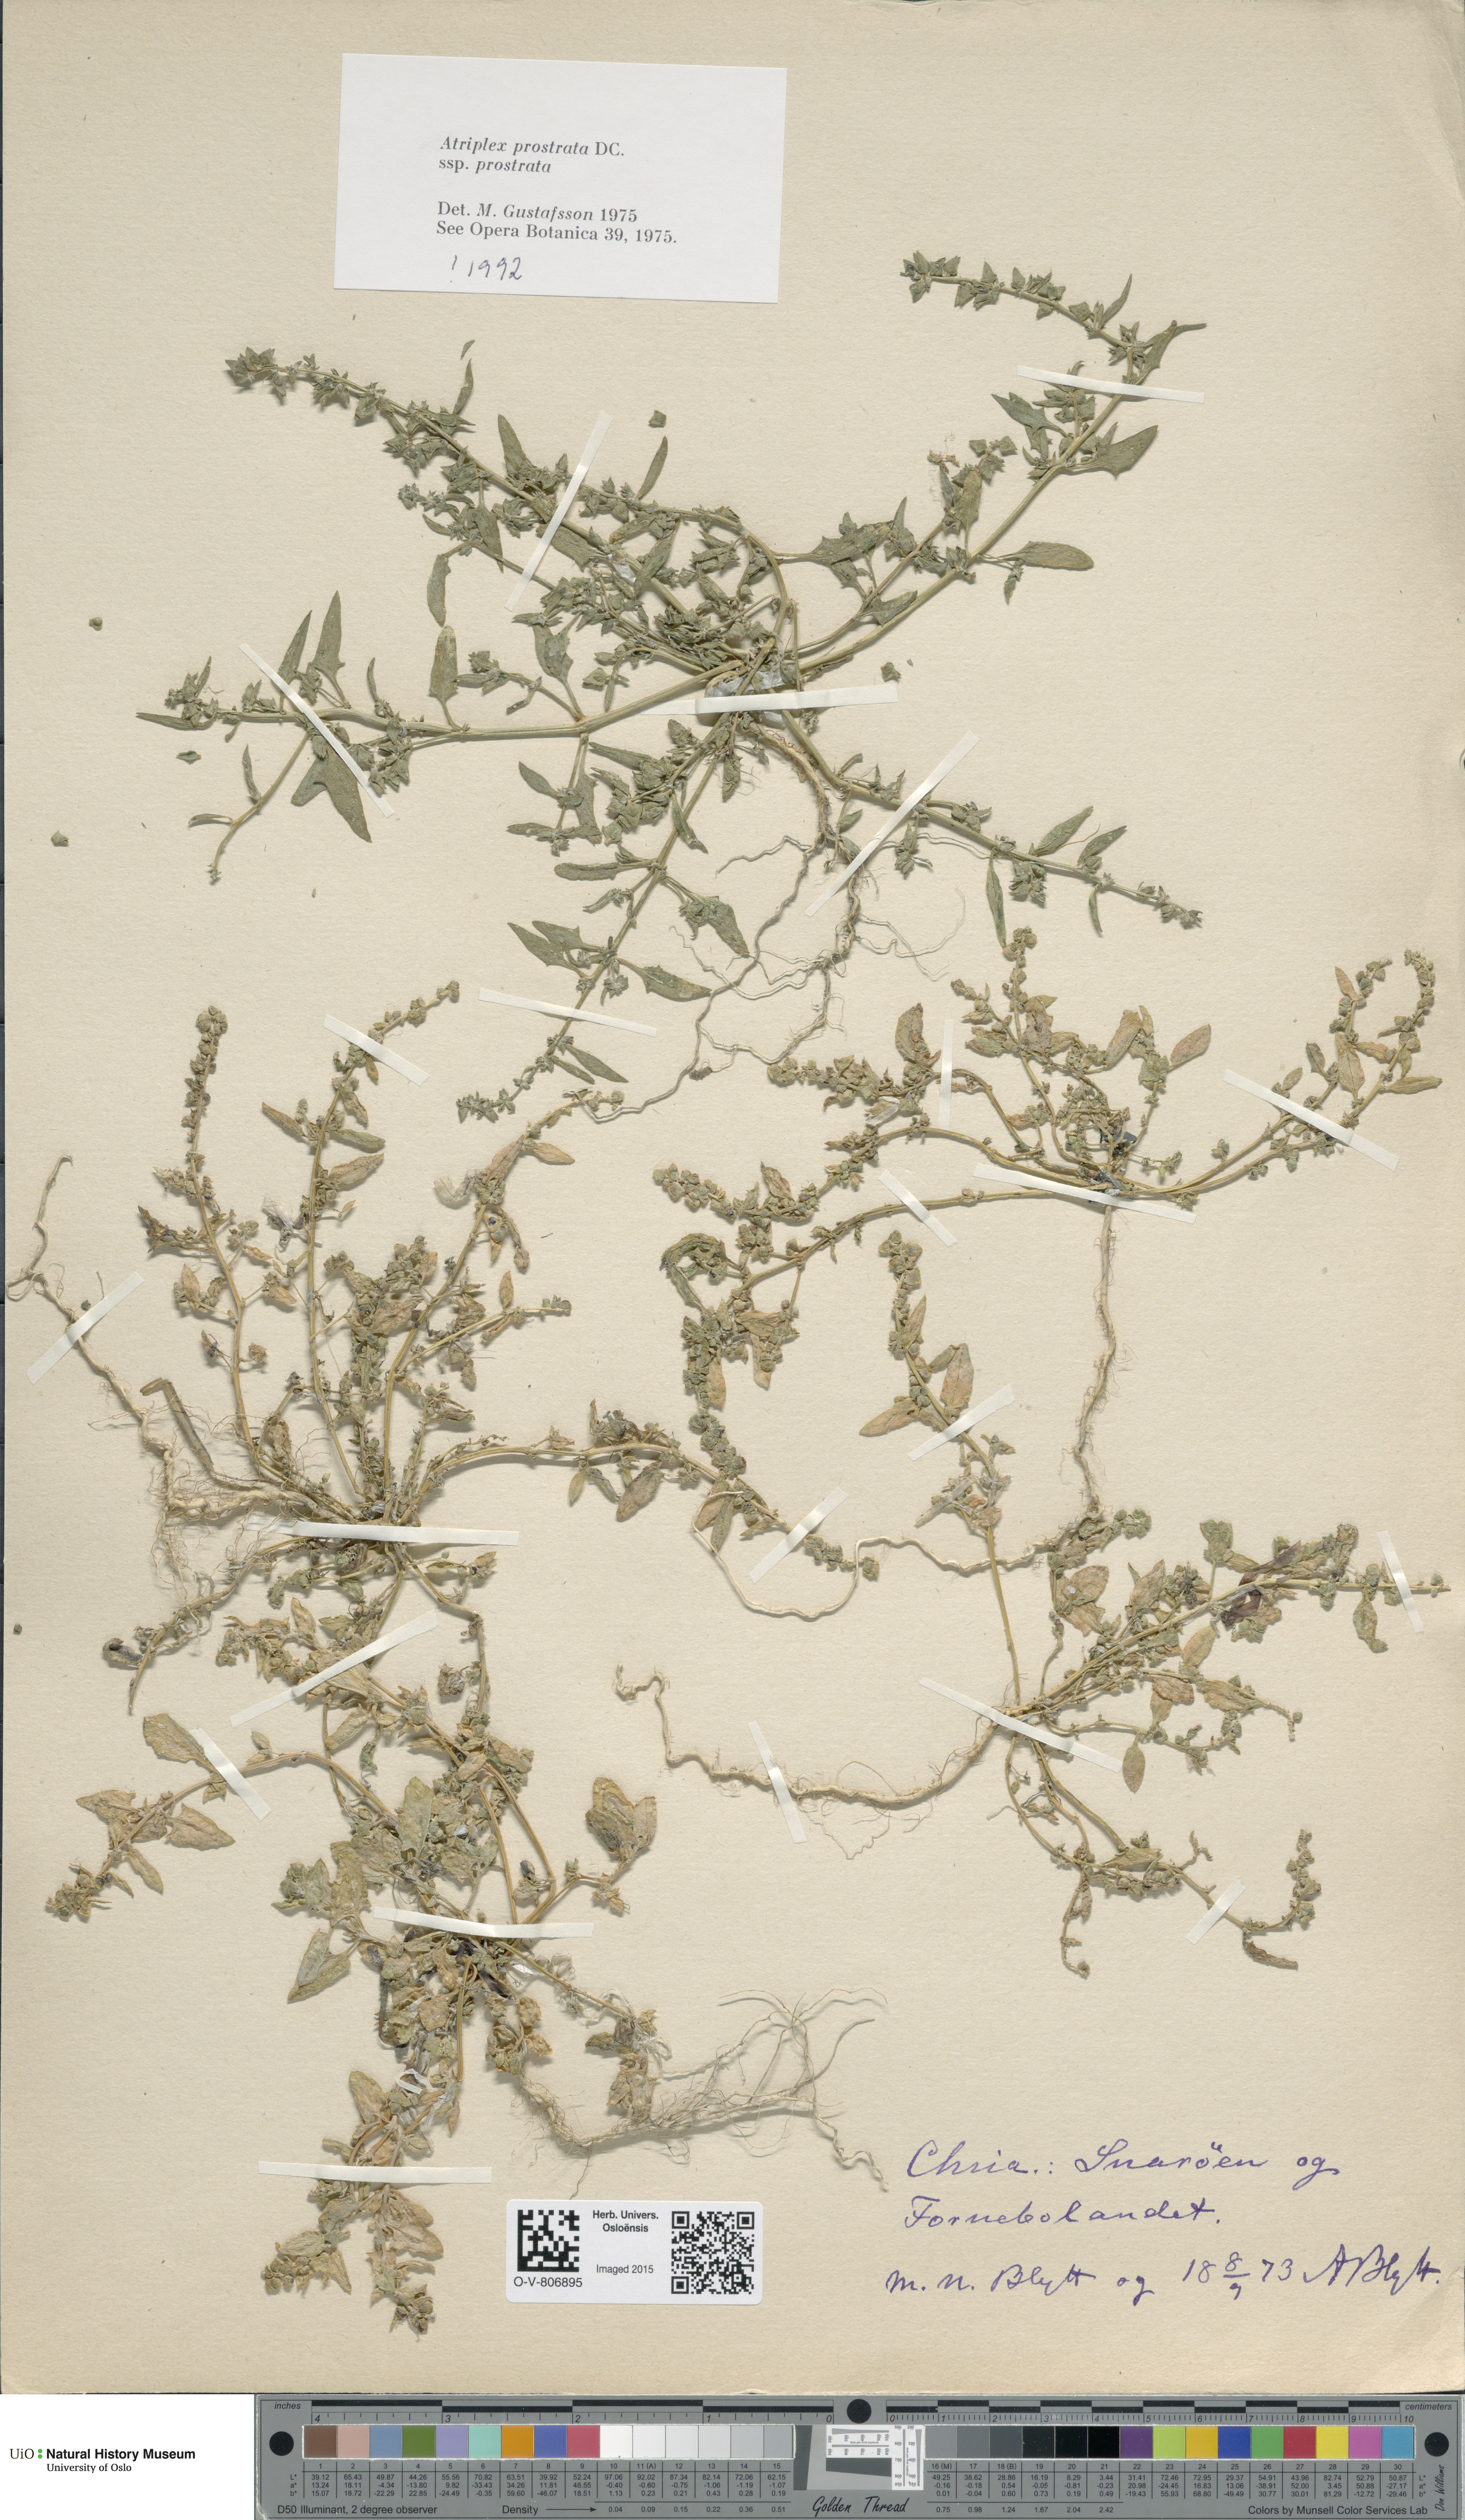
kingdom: Plantae
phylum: Tracheophyta
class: Magnoliopsida
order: Caryophyllales
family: Amaranthaceae
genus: Atriplex
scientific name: Atriplex prostrata
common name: Spear-leaved orache
